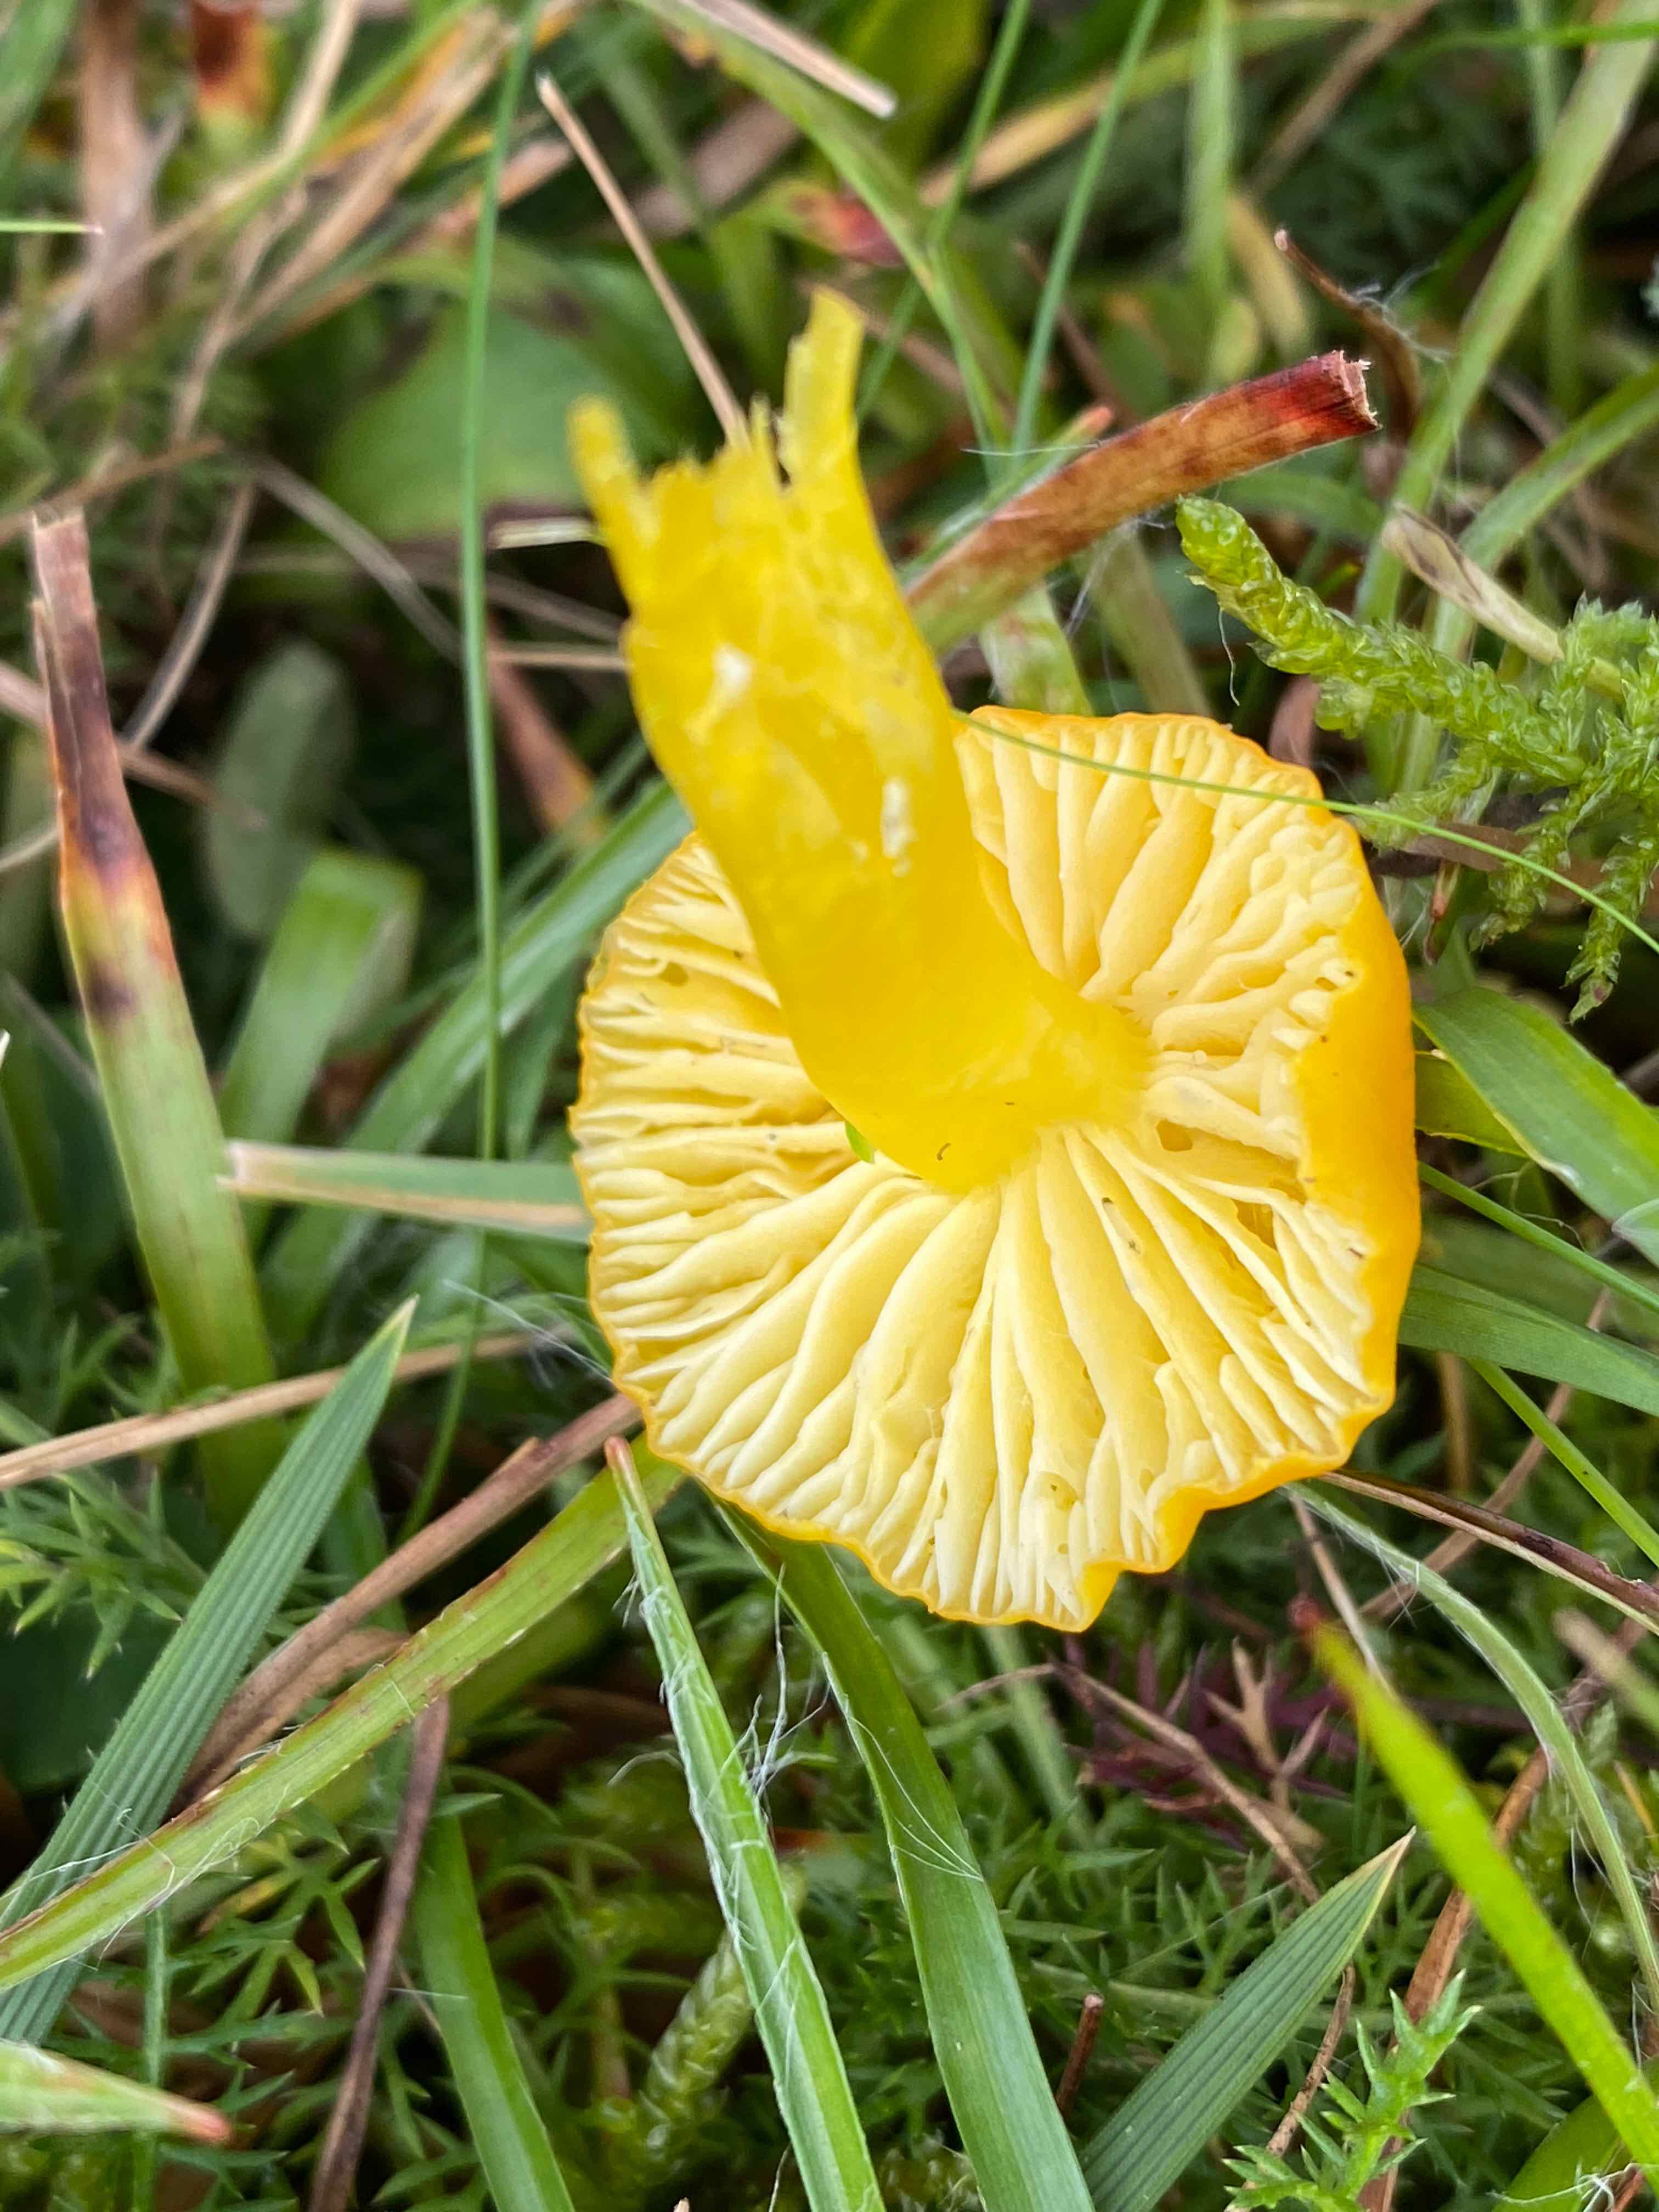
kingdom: Fungi
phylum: Basidiomycota
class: Agaricomycetes
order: Agaricales
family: Hygrophoraceae
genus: Hygrocybe
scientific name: Hygrocybe ceracea
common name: voksgul vokshat
